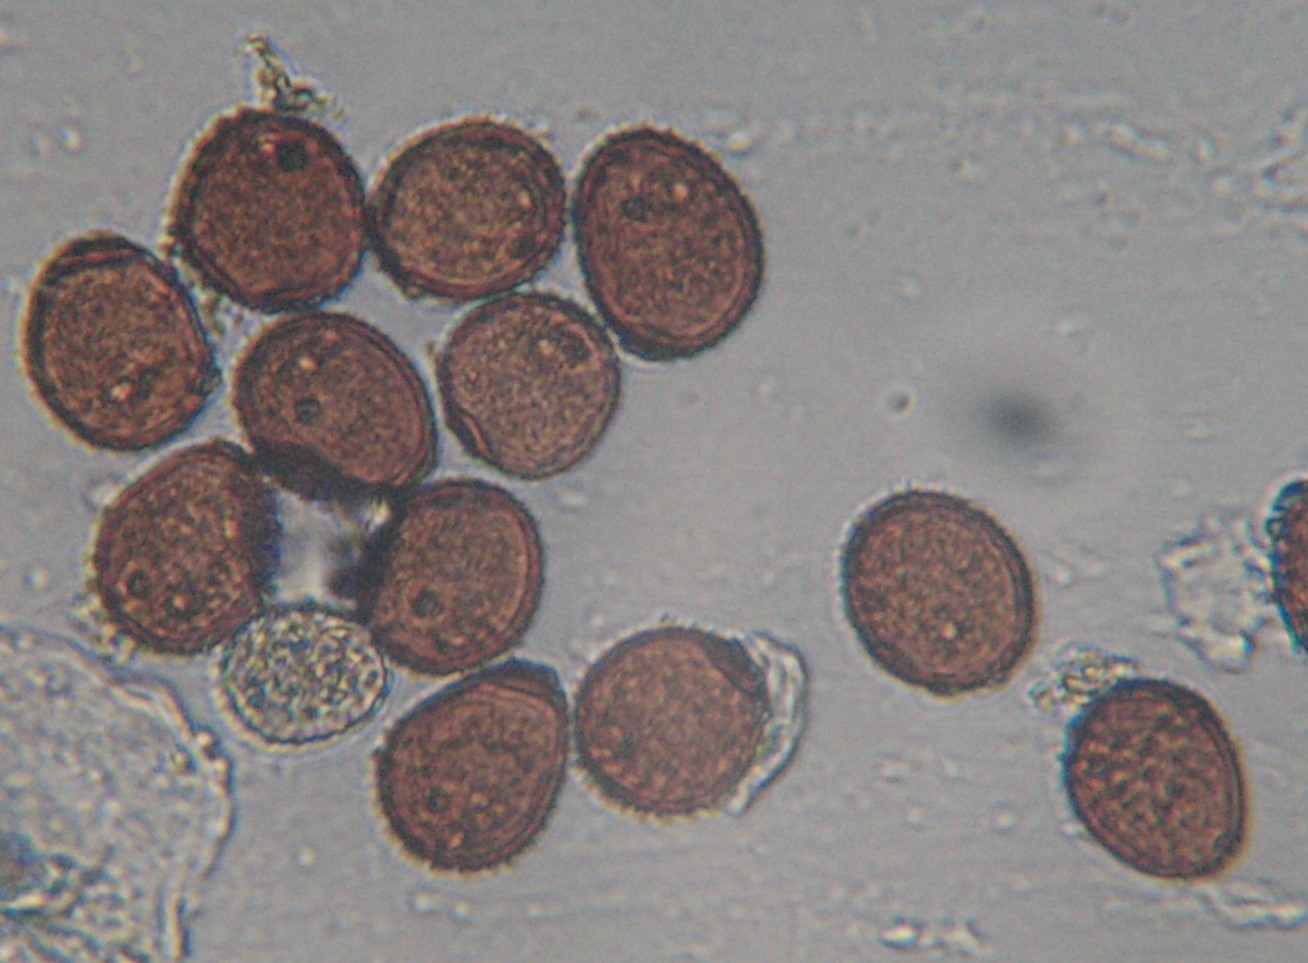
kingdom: Fungi
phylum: Basidiomycota
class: Pucciniomycetes
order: Pucciniales
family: Pucciniaceae
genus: Puccinia
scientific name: Puccinia hieracii
